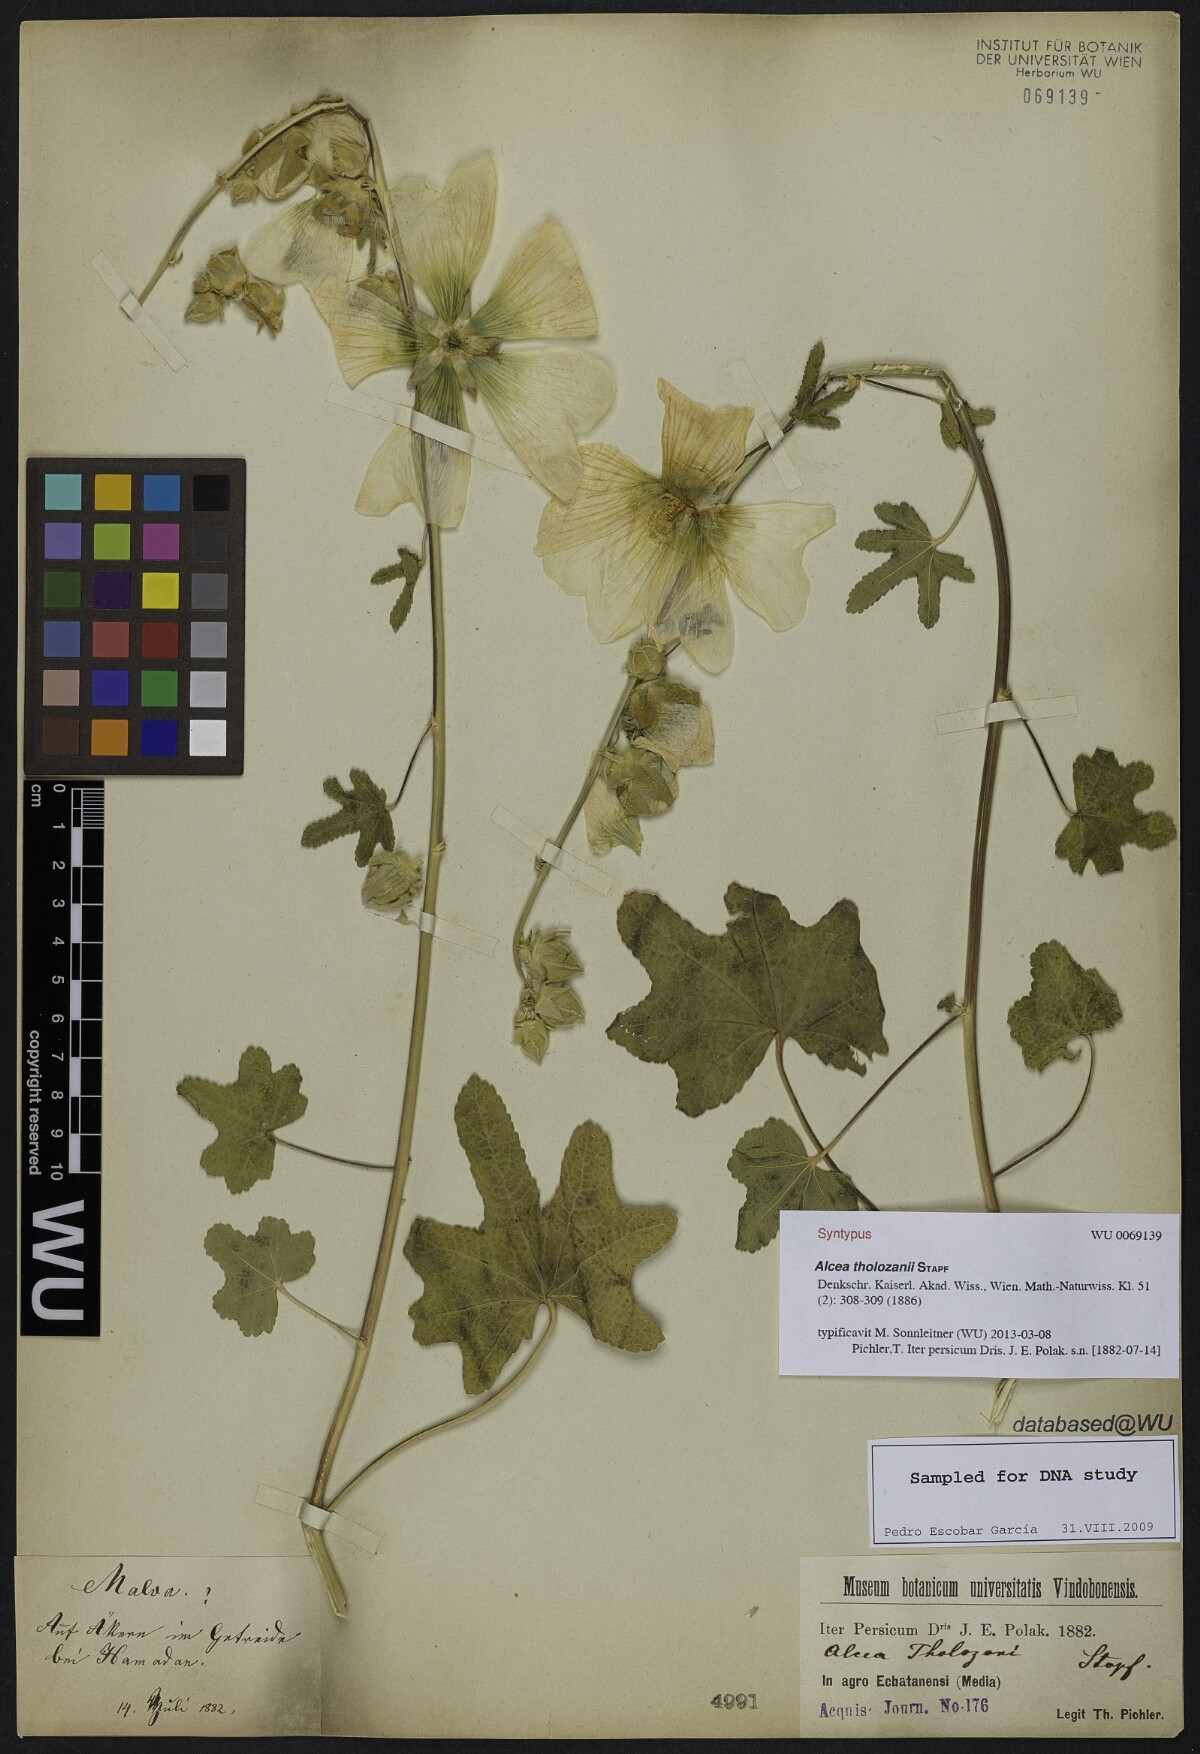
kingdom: Plantae
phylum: Tracheophyta
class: Magnoliopsida
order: Malvales
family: Malvaceae
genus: Alcea
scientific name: Alcea tholozani
